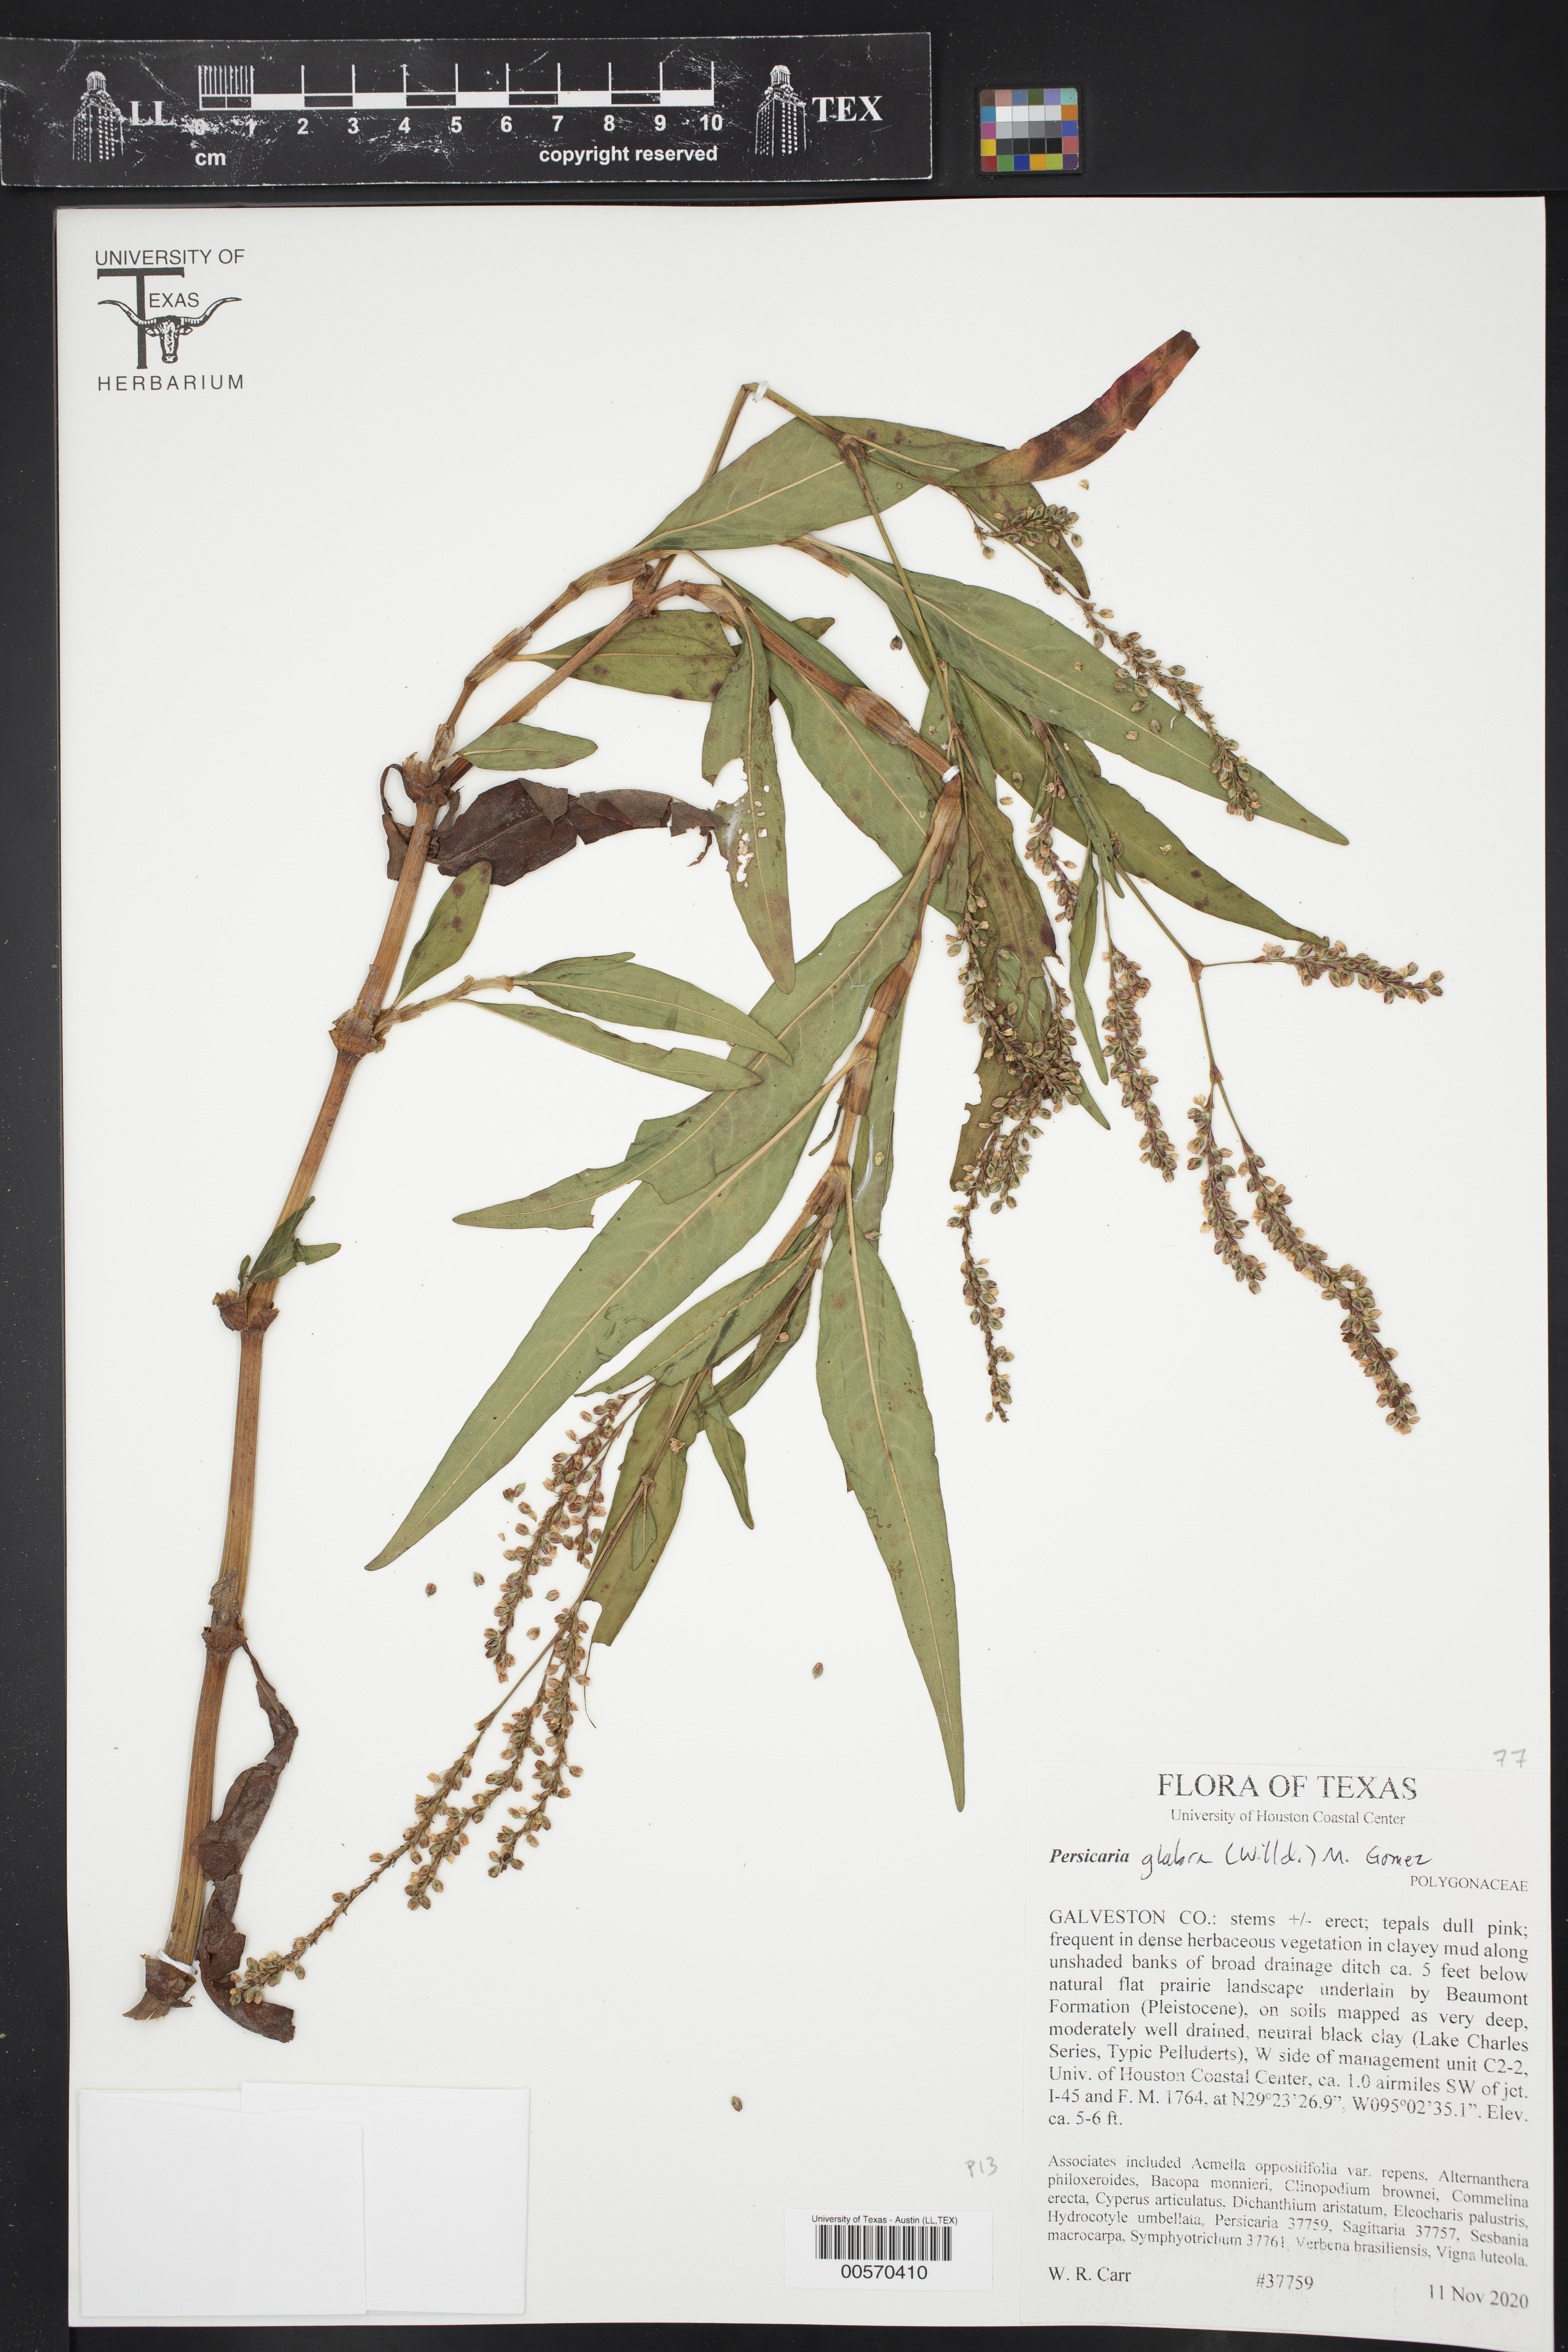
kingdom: Plantae
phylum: Tracheophyta
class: Magnoliopsida
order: Caryophyllales
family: Polygonaceae
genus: Persicaria
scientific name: Persicaria glabra
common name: Denseflower knotweed
